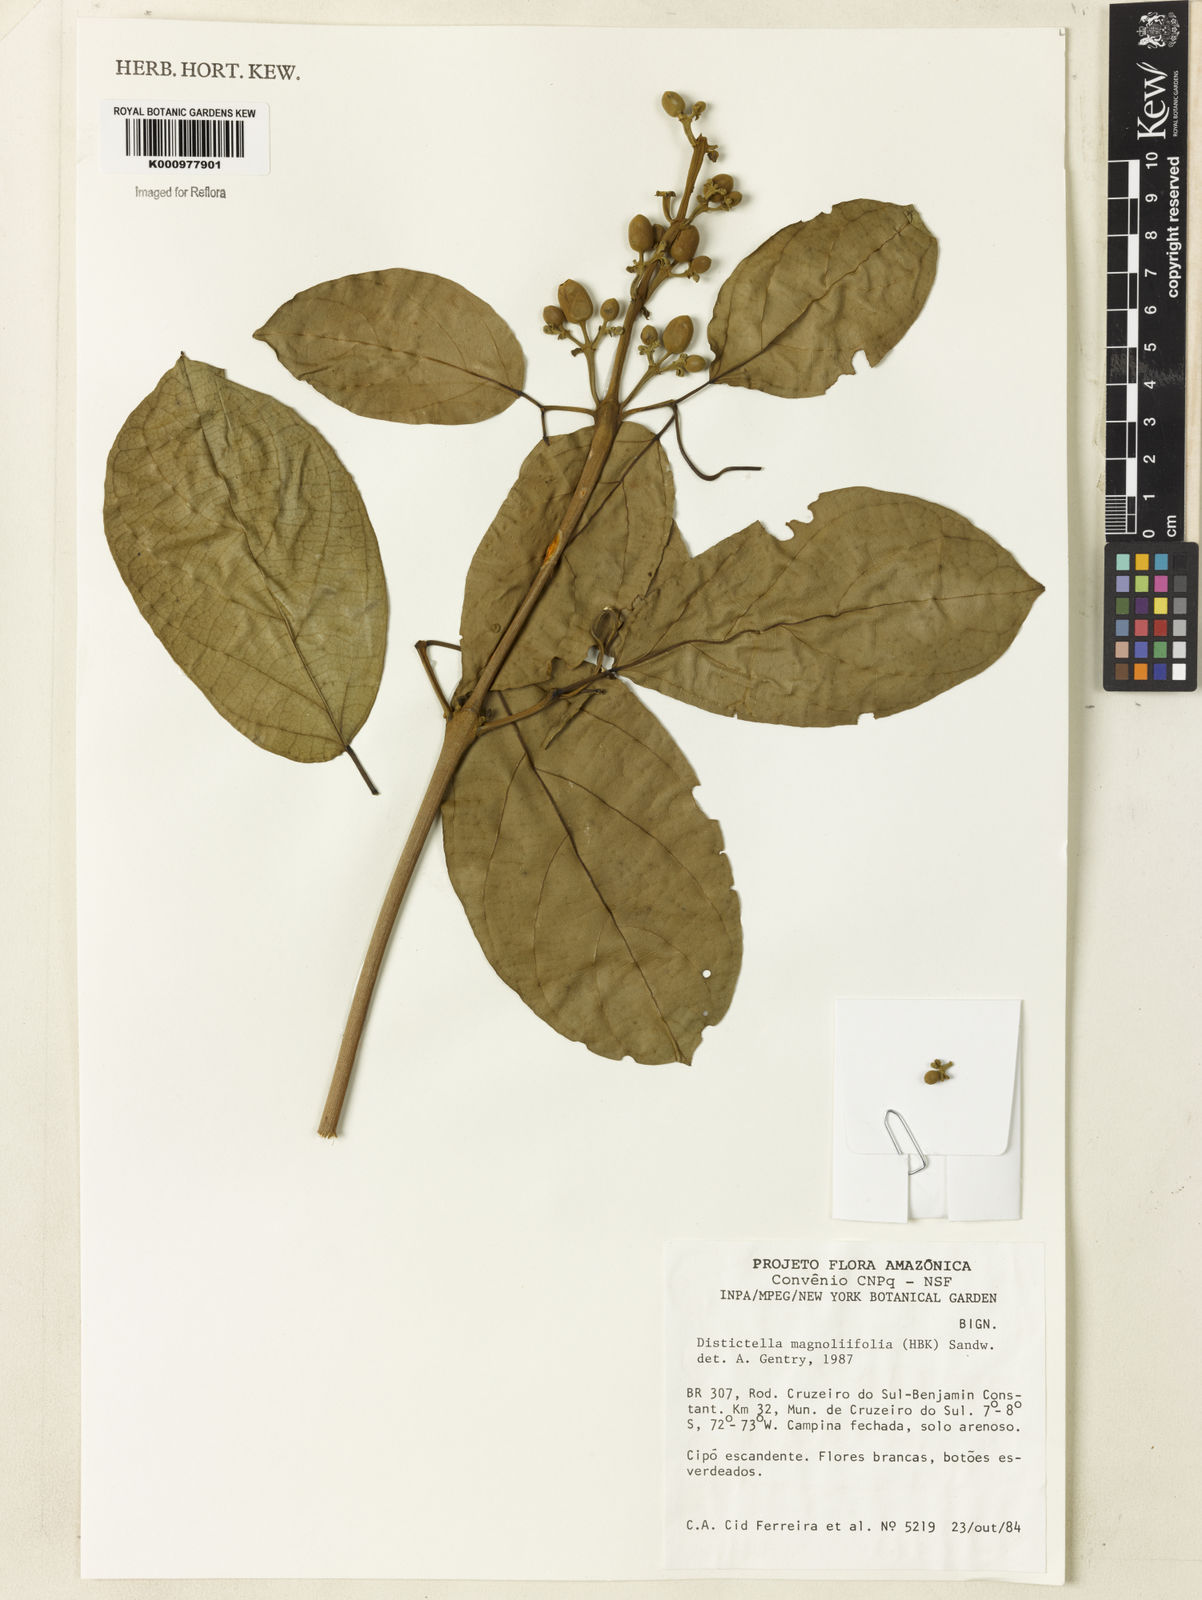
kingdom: Plantae
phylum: Tracheophyta
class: Magnoliopsida
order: Lamiales
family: Bignoniaceae
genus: Amphilophium
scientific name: Amphilophium
